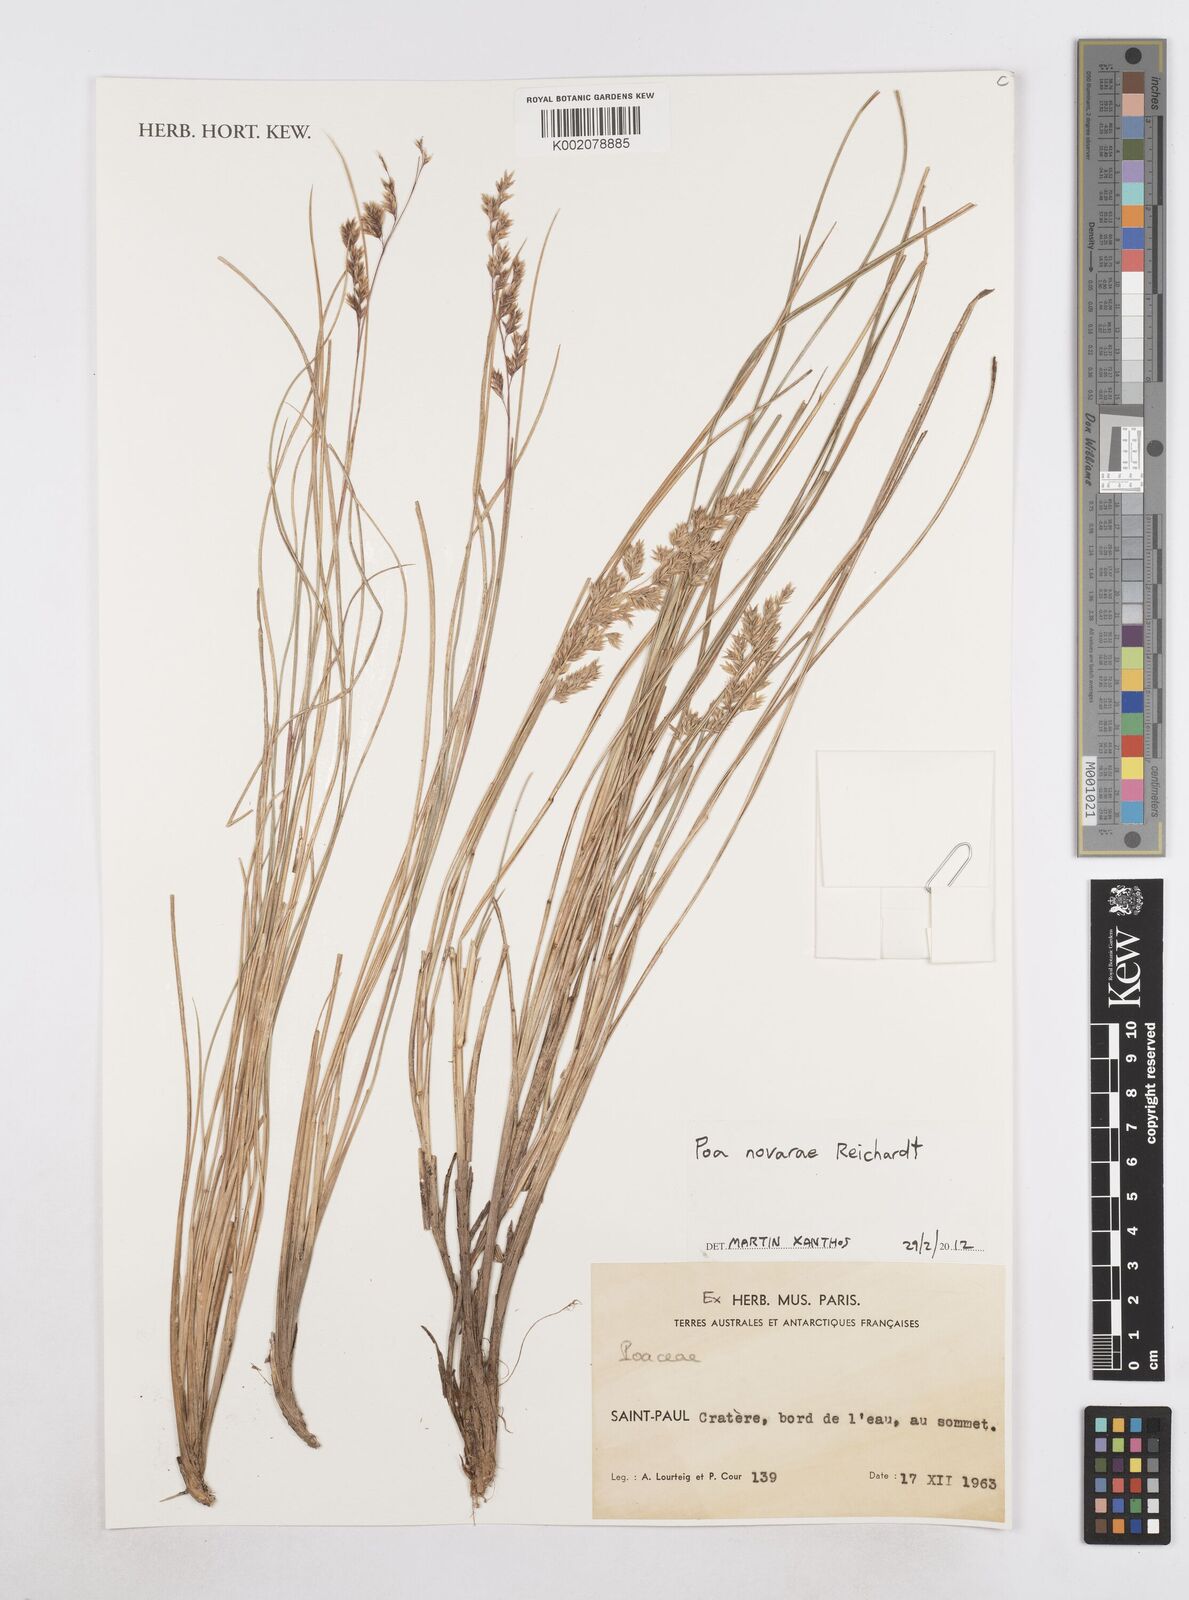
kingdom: Plantae
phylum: Tracheophyta
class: Liliopsida
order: Poales
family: Poaceae
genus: Poa
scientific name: Poa novarae
